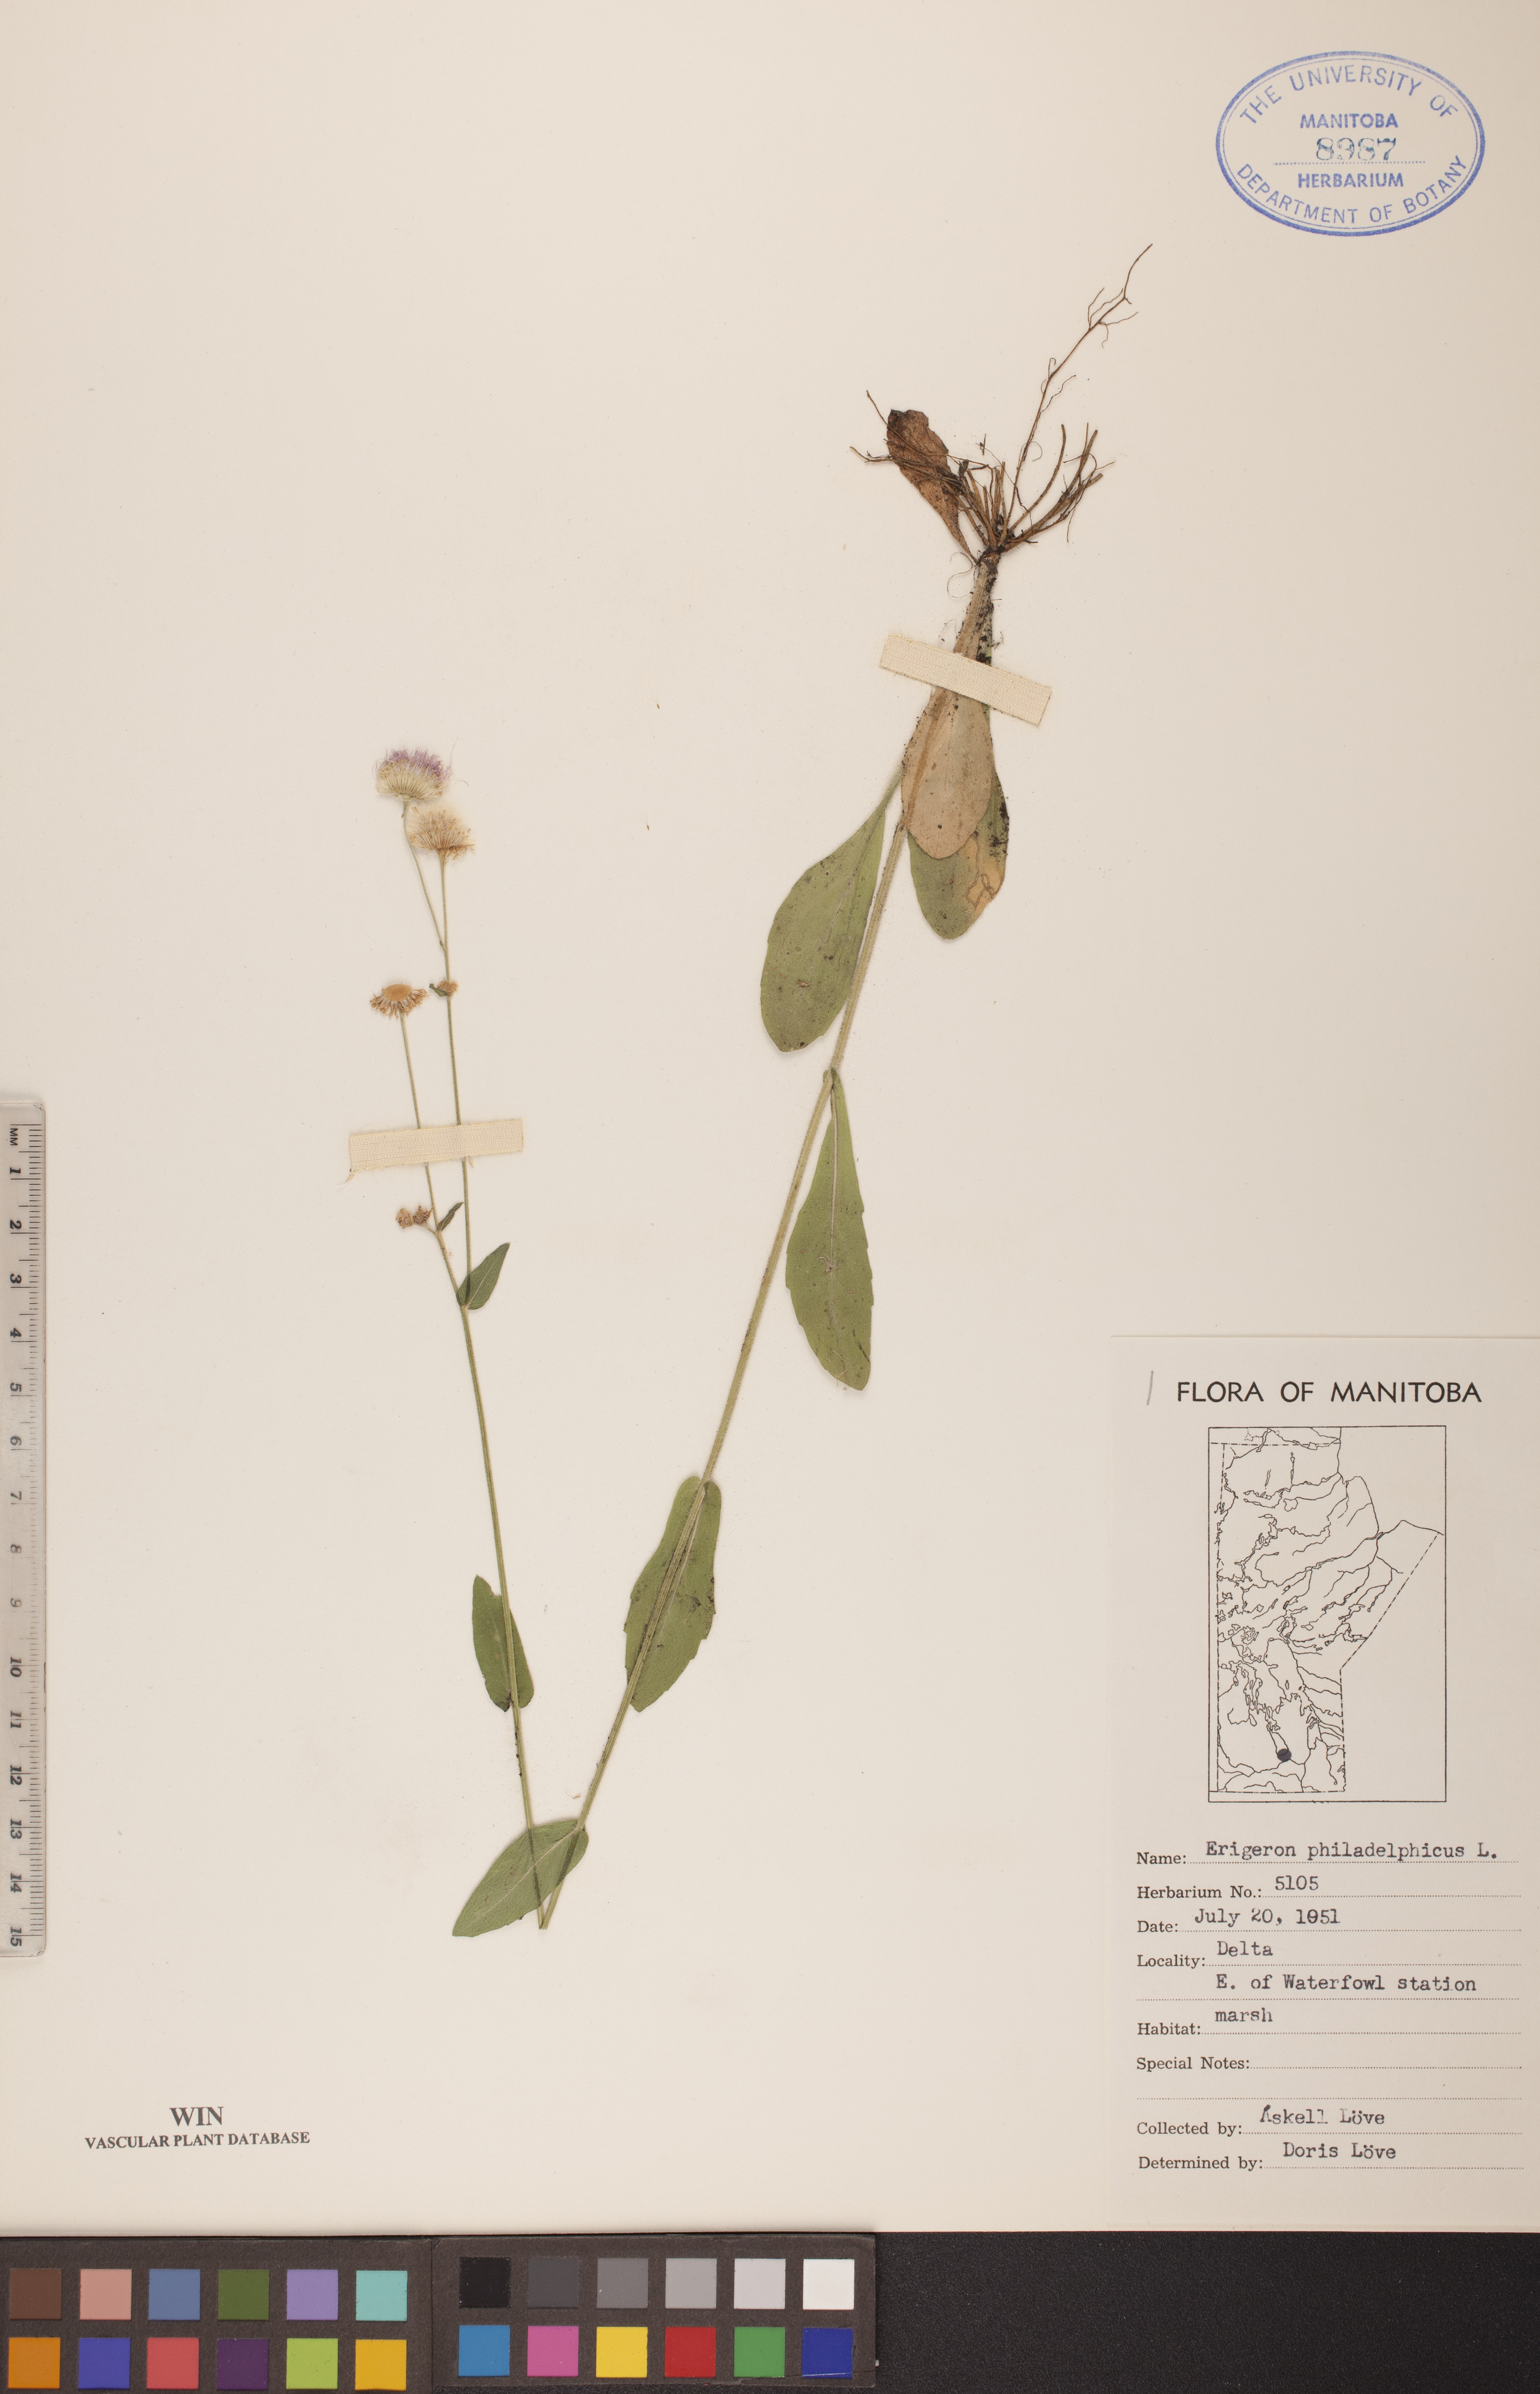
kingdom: Plantae
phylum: Tracheophyta
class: Magnoliopsida
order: Asterales
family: Asteraceae
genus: Erigeron
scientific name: Erigeron philadelphicus
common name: Robin's-plantain
